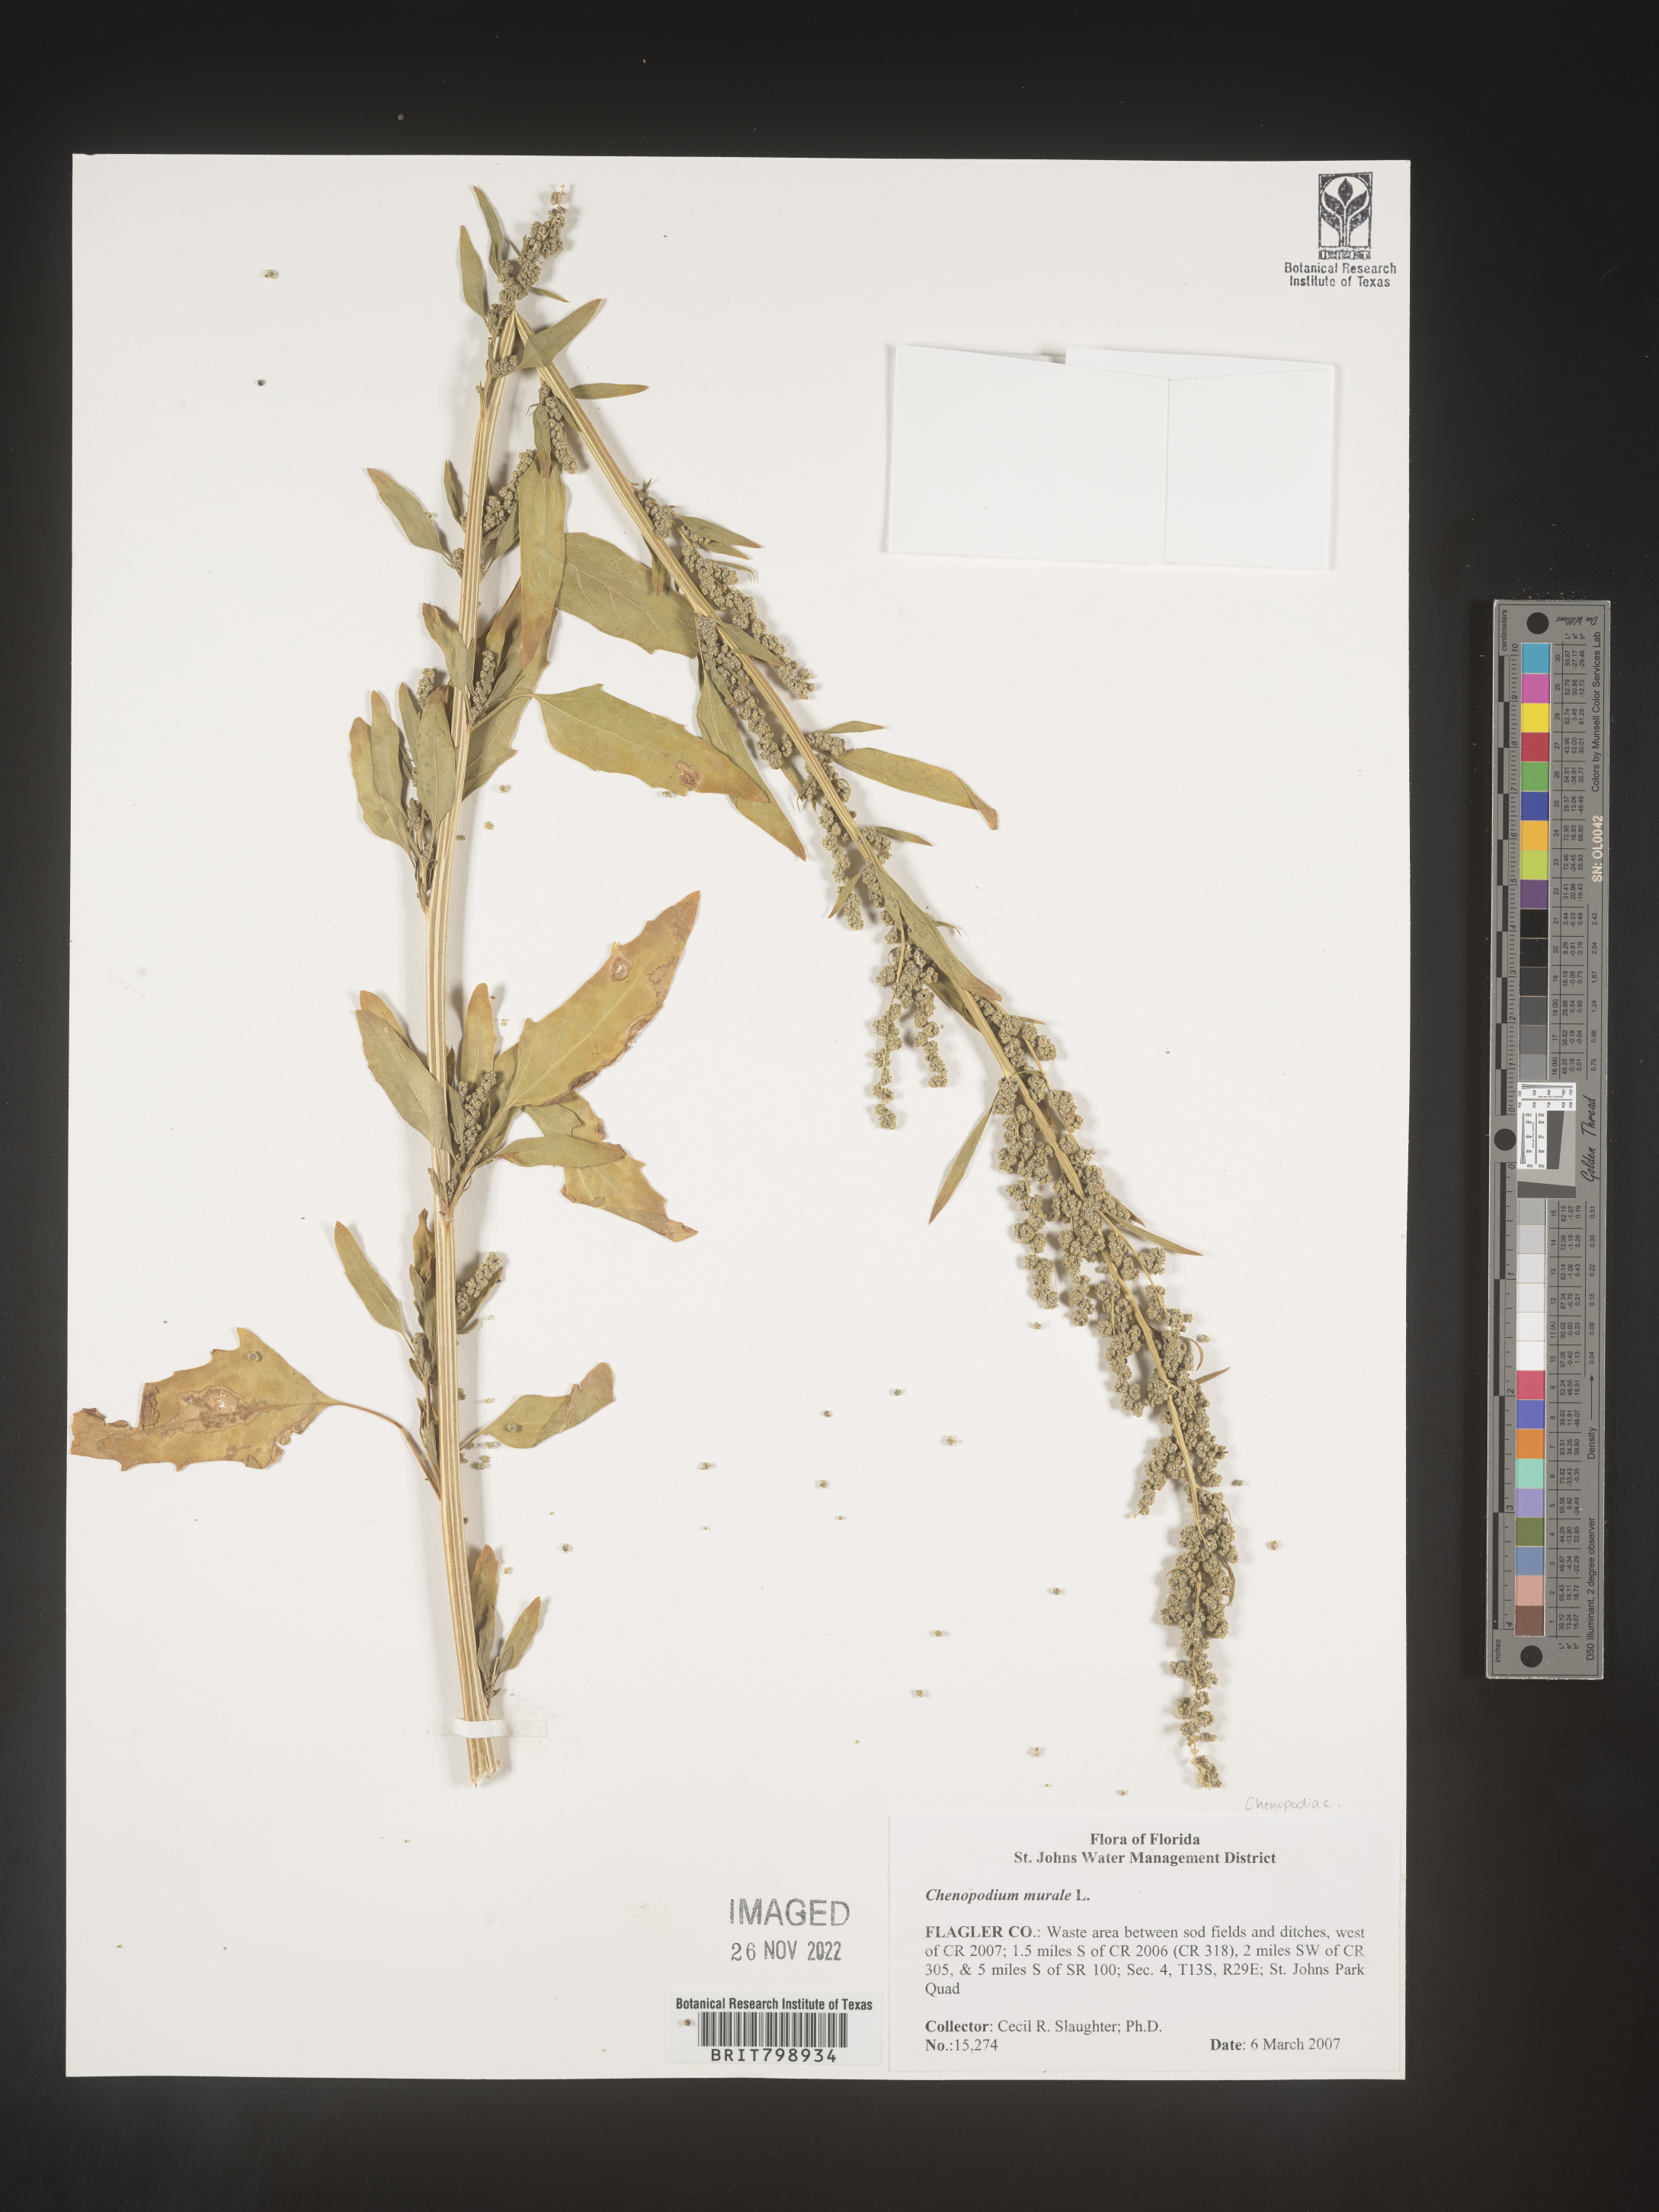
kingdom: Plantae
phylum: Tracheophyta
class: Magnoliopsida
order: Caryophyllales
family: Amaranthaceae
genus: Chenopodiastrum
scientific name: Chenopodiastrum murale
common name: Sowbane
